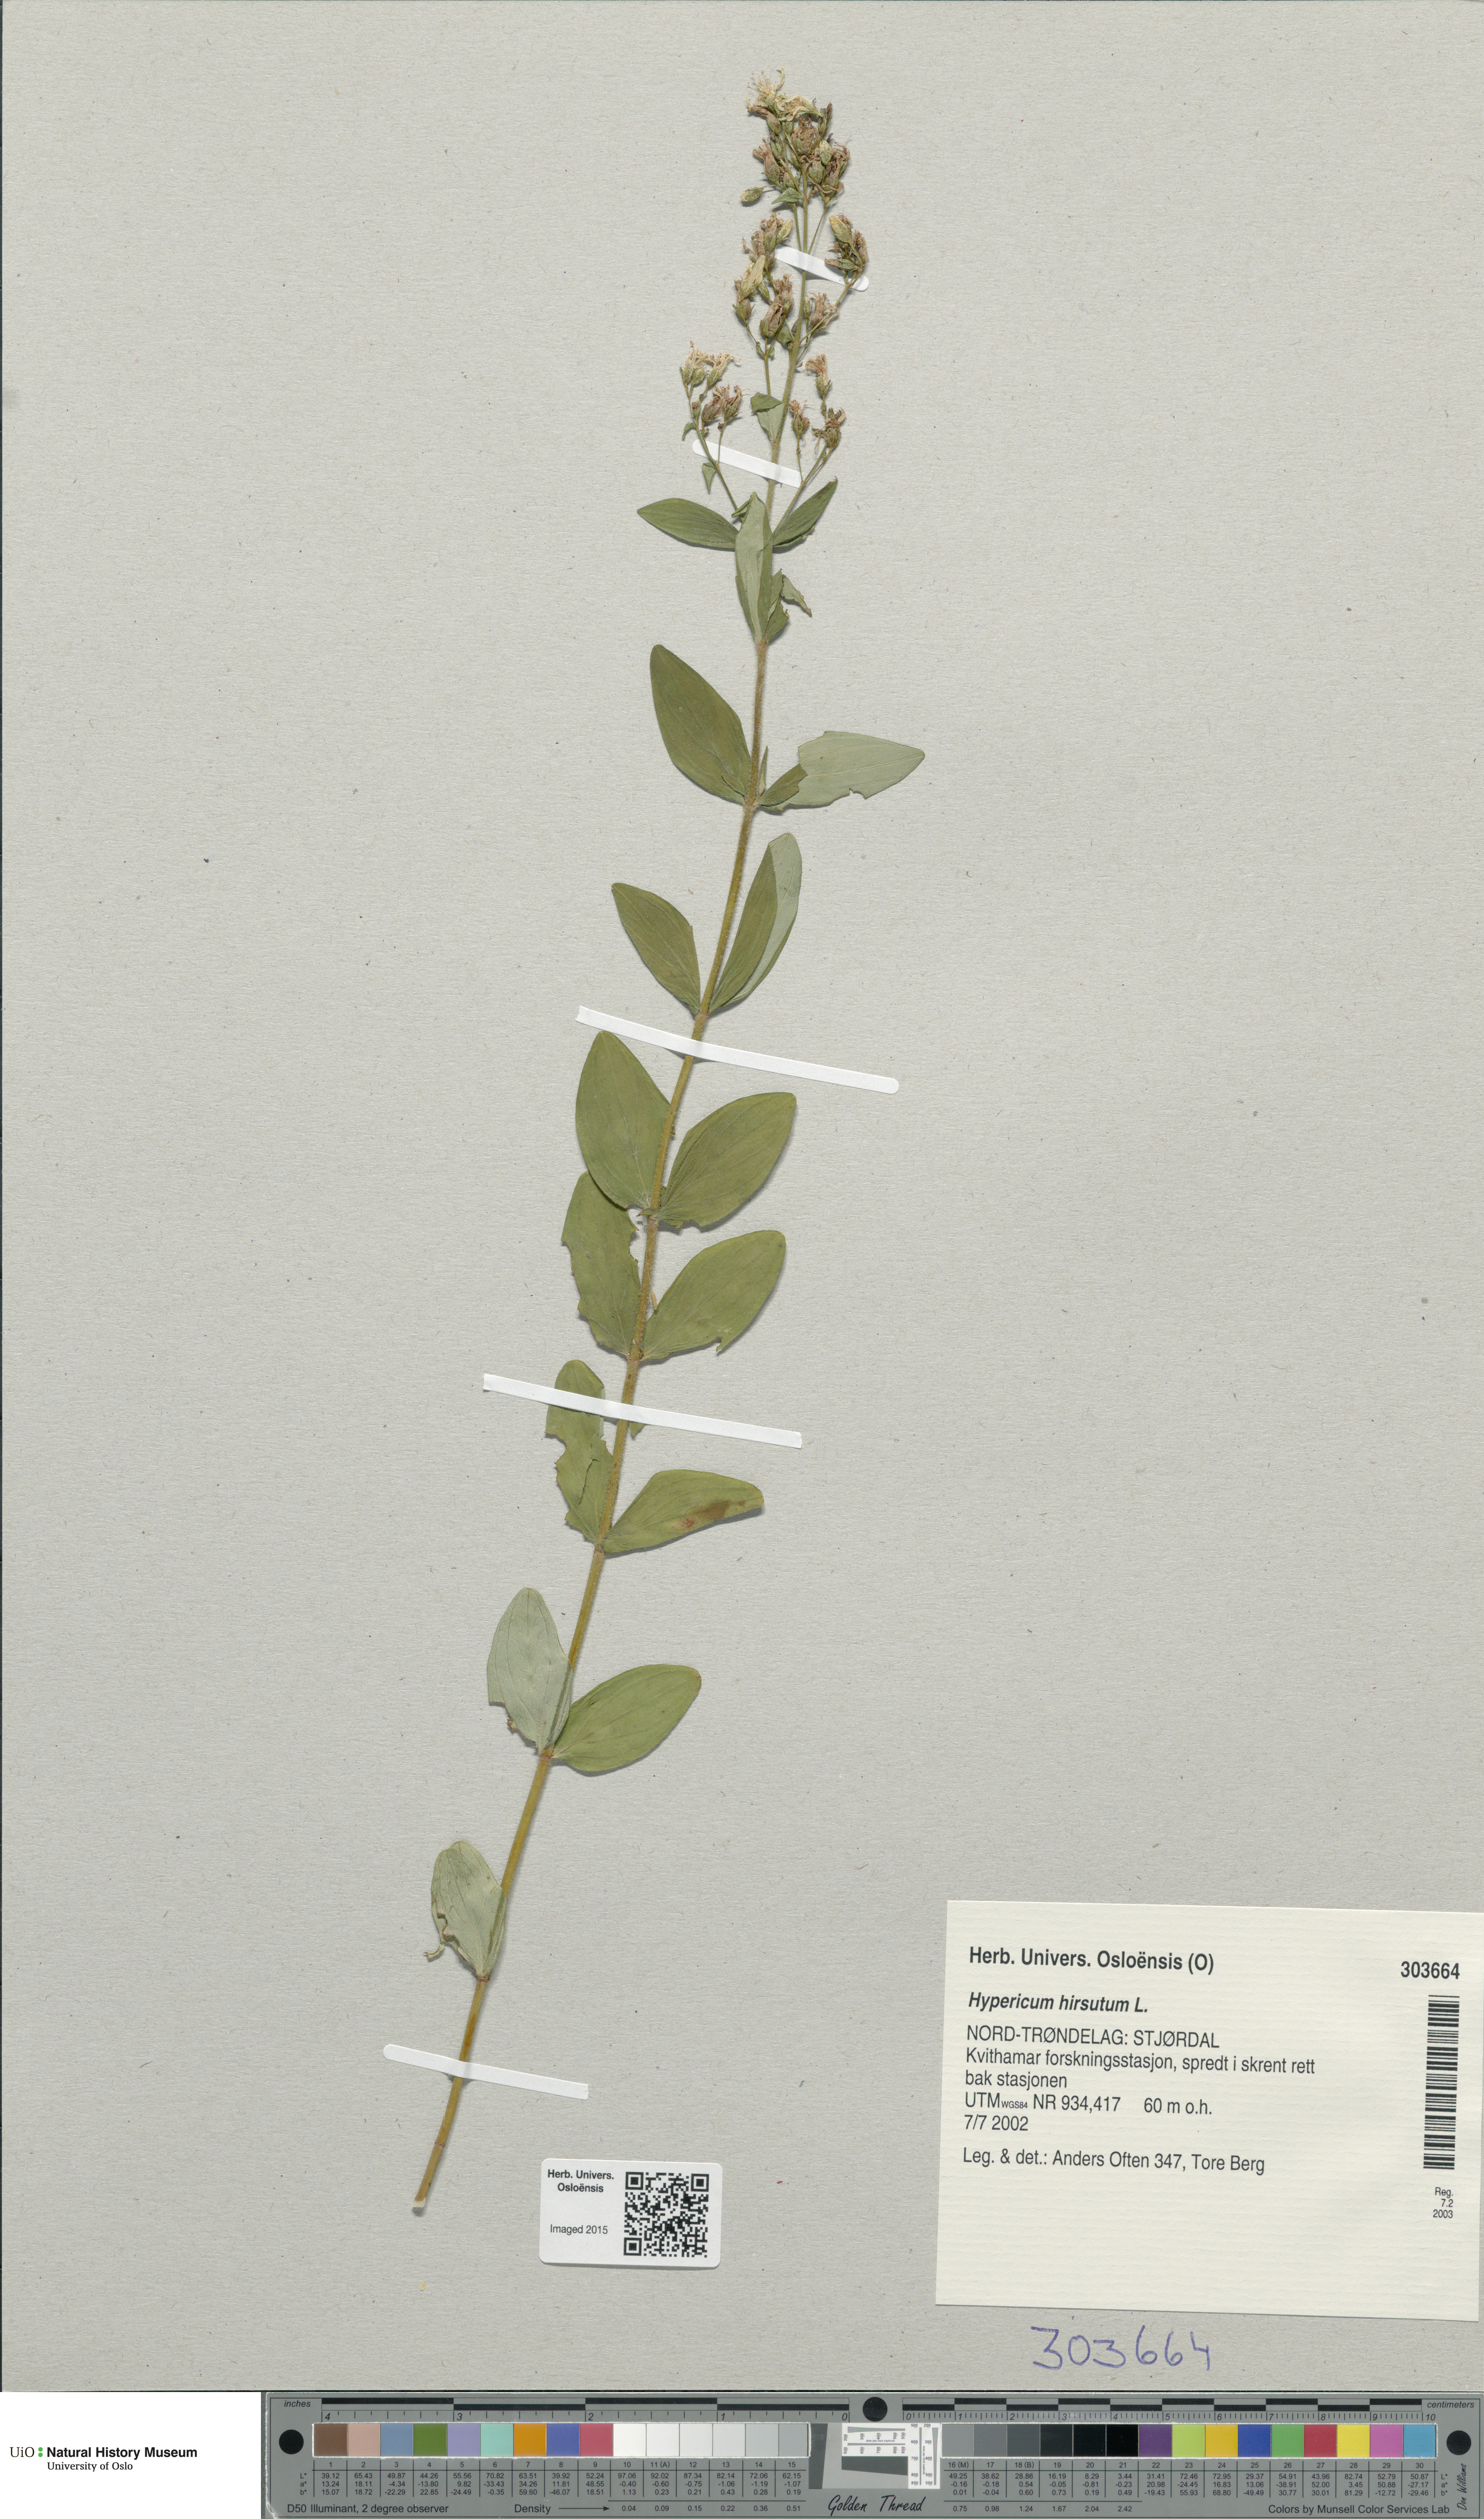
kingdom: Plantae
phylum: Tracheophyta
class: Magnoliopsida
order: Malpighiales
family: Hypericaceae
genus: Hypericum
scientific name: Hypericum hirsutum
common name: Hairy st. john's-wort
